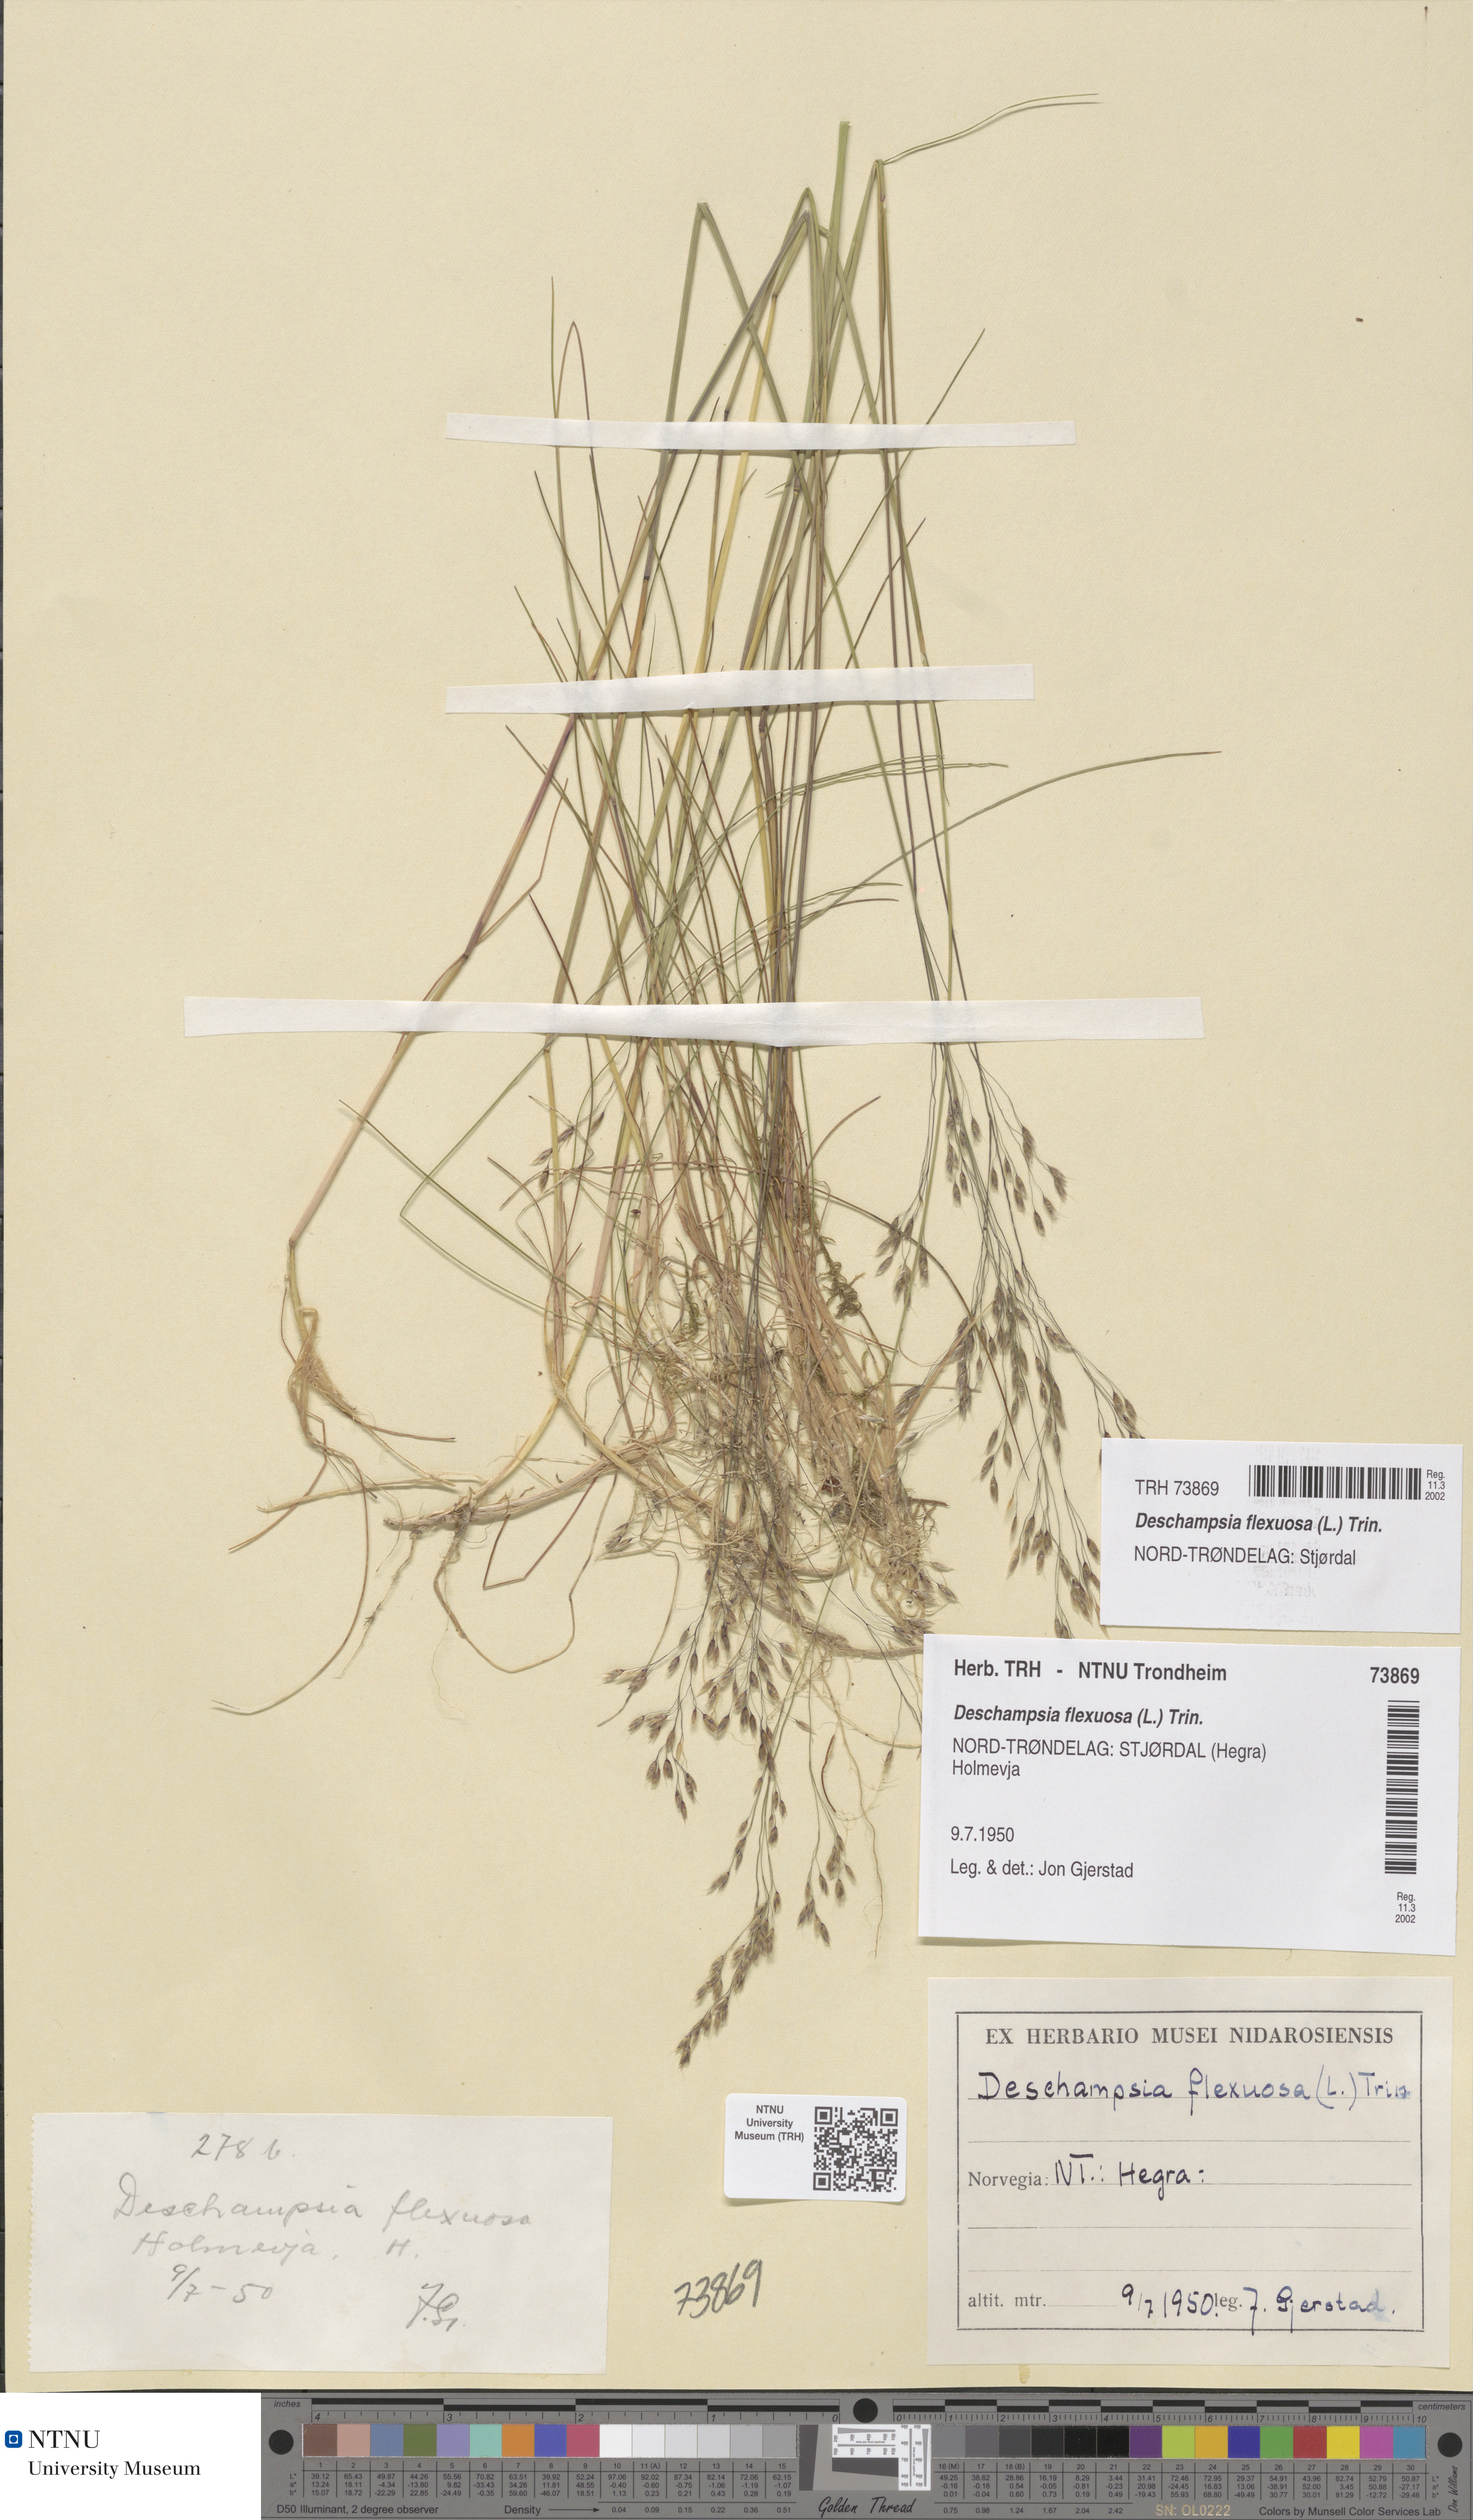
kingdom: Plantae
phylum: Tracheophyta
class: Liliopsida
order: Poales
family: Poaceae
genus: Avenella
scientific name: Avenella flexuosa
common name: Wavy hairgrass
